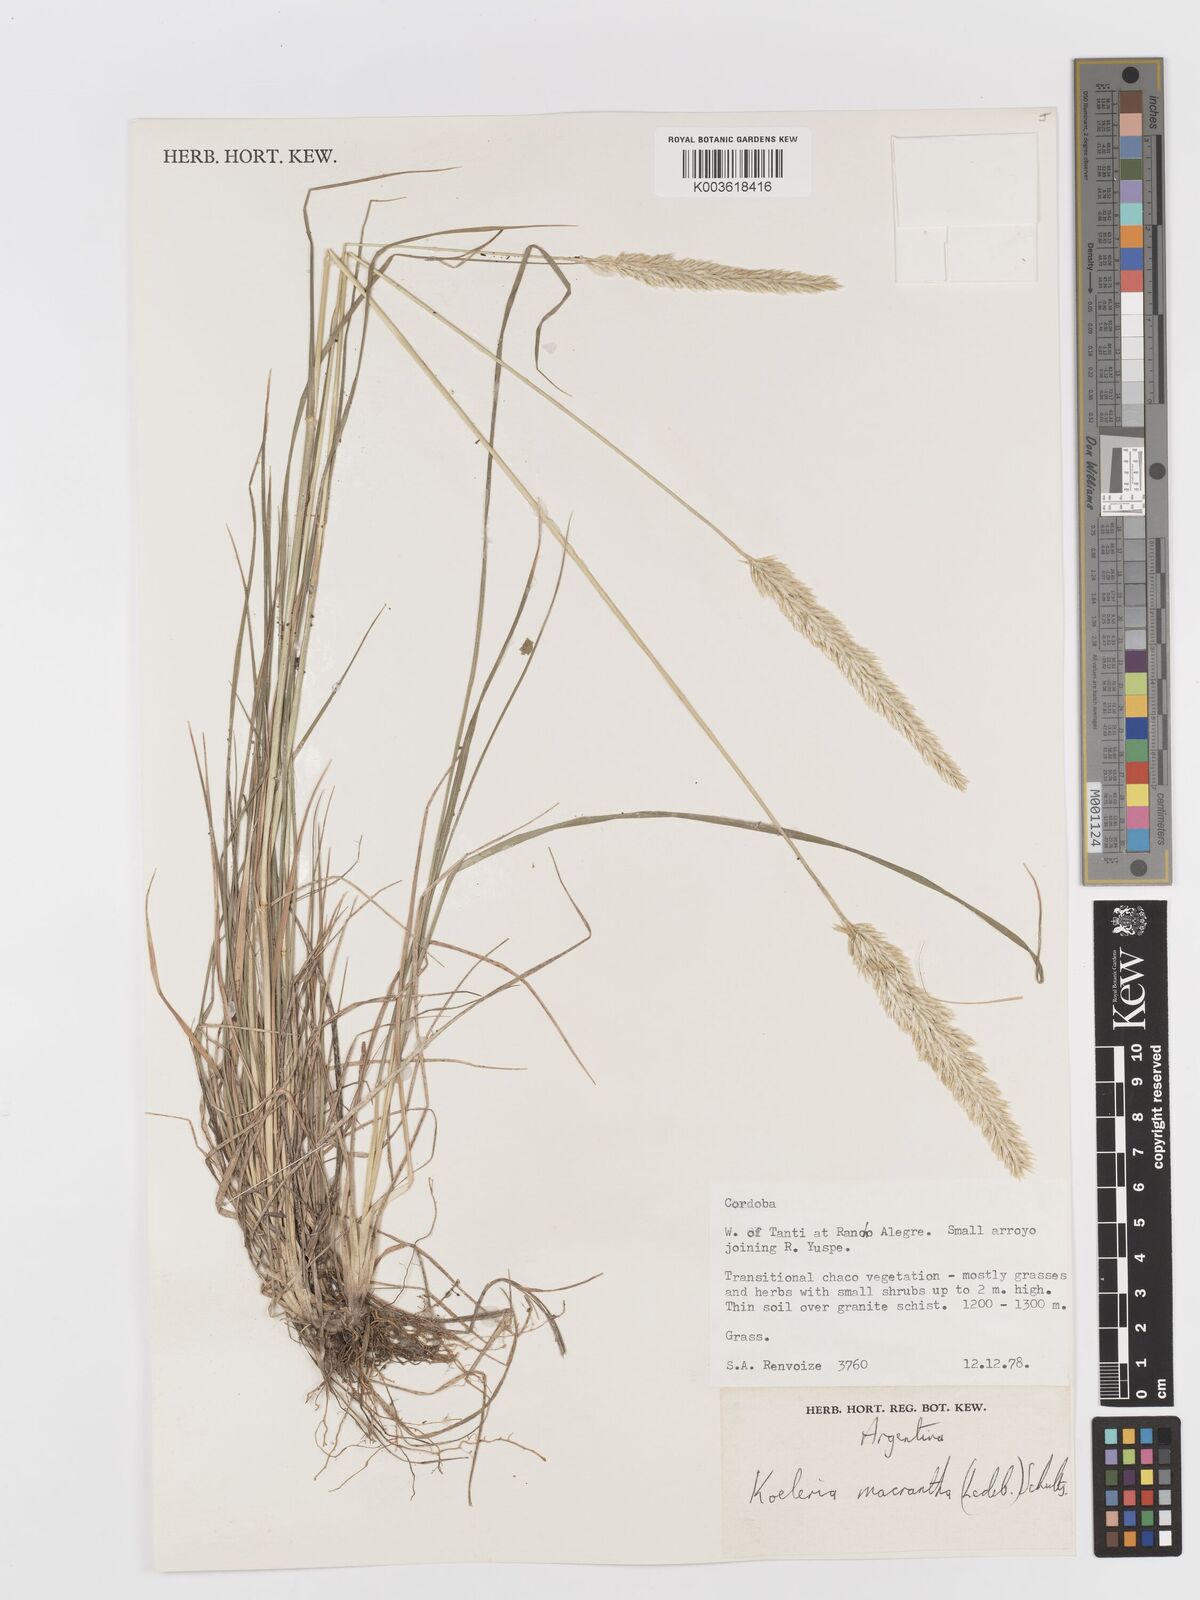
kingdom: Plantae
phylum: Tracheophyta
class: Liliopsida
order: Poales
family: Poaceae
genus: Koeleria
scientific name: Koeleria
